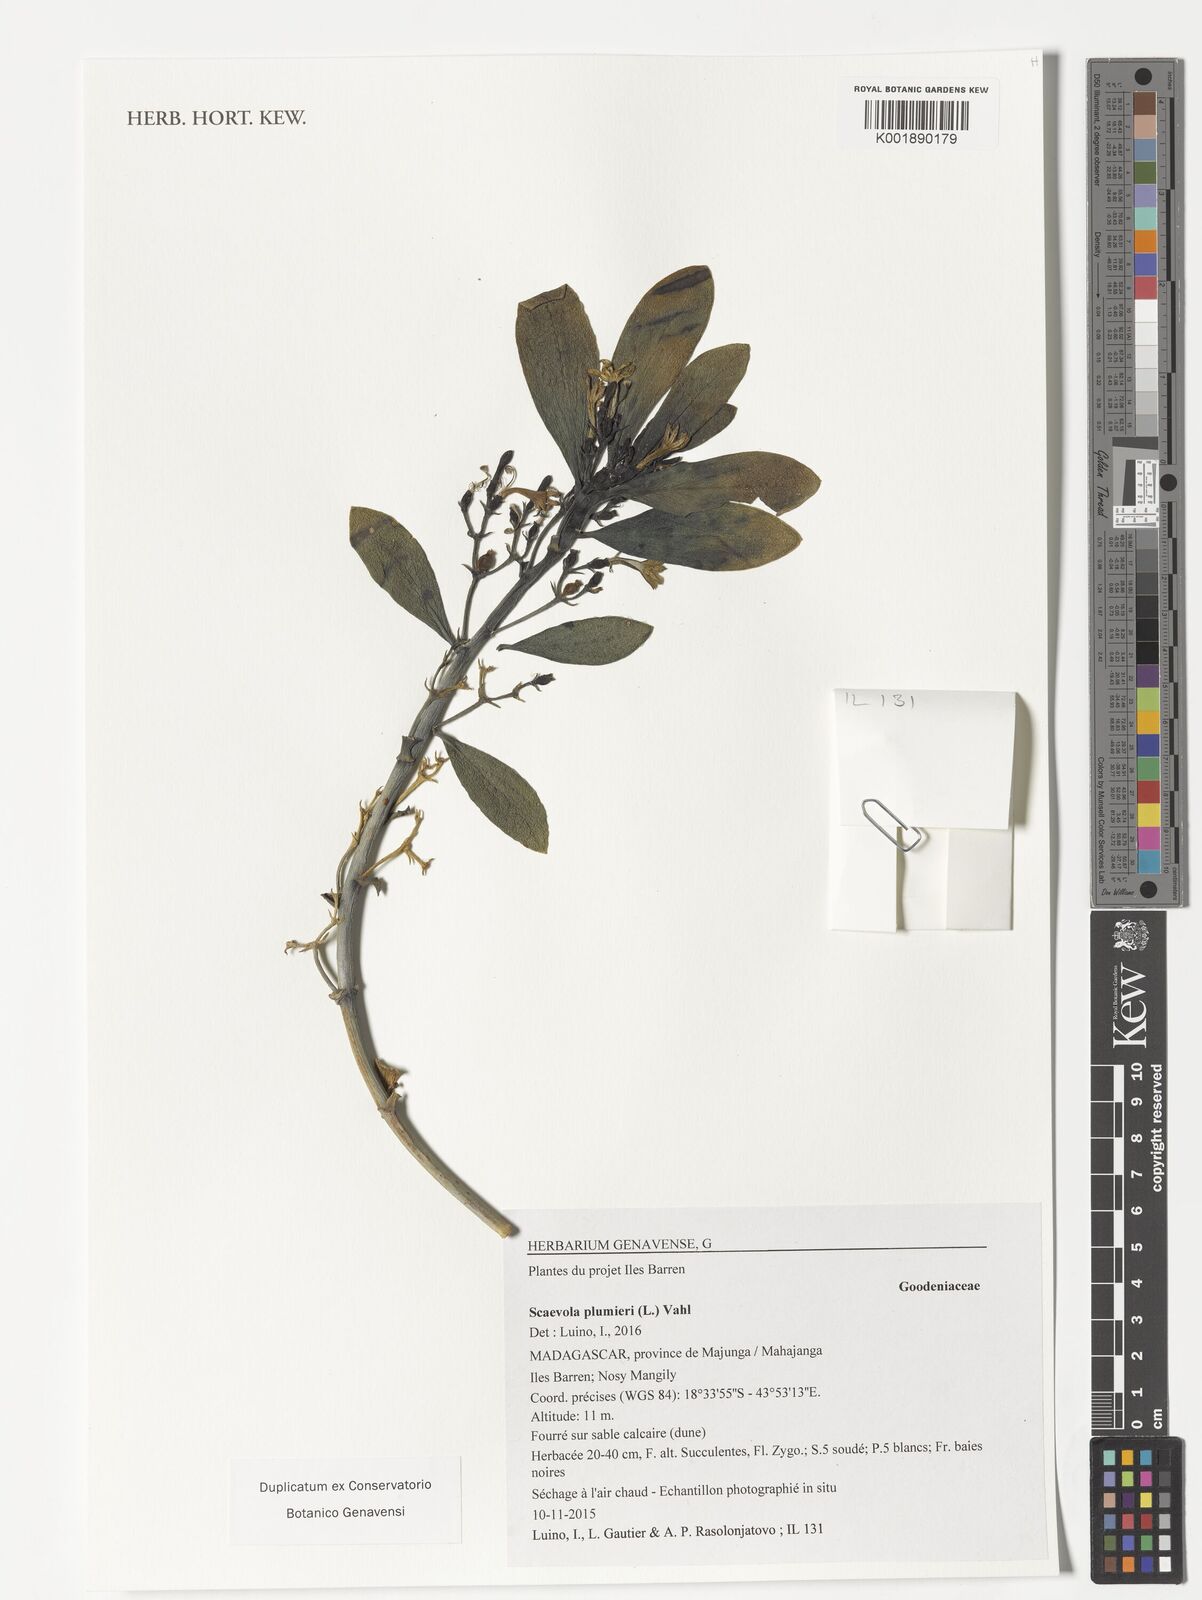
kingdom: Plantae
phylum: Tracheophyta
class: Magnoliopsida
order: Asterales
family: Goodeniaceae
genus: Scaevola
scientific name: Scaevola plumieri
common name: Gull feed
